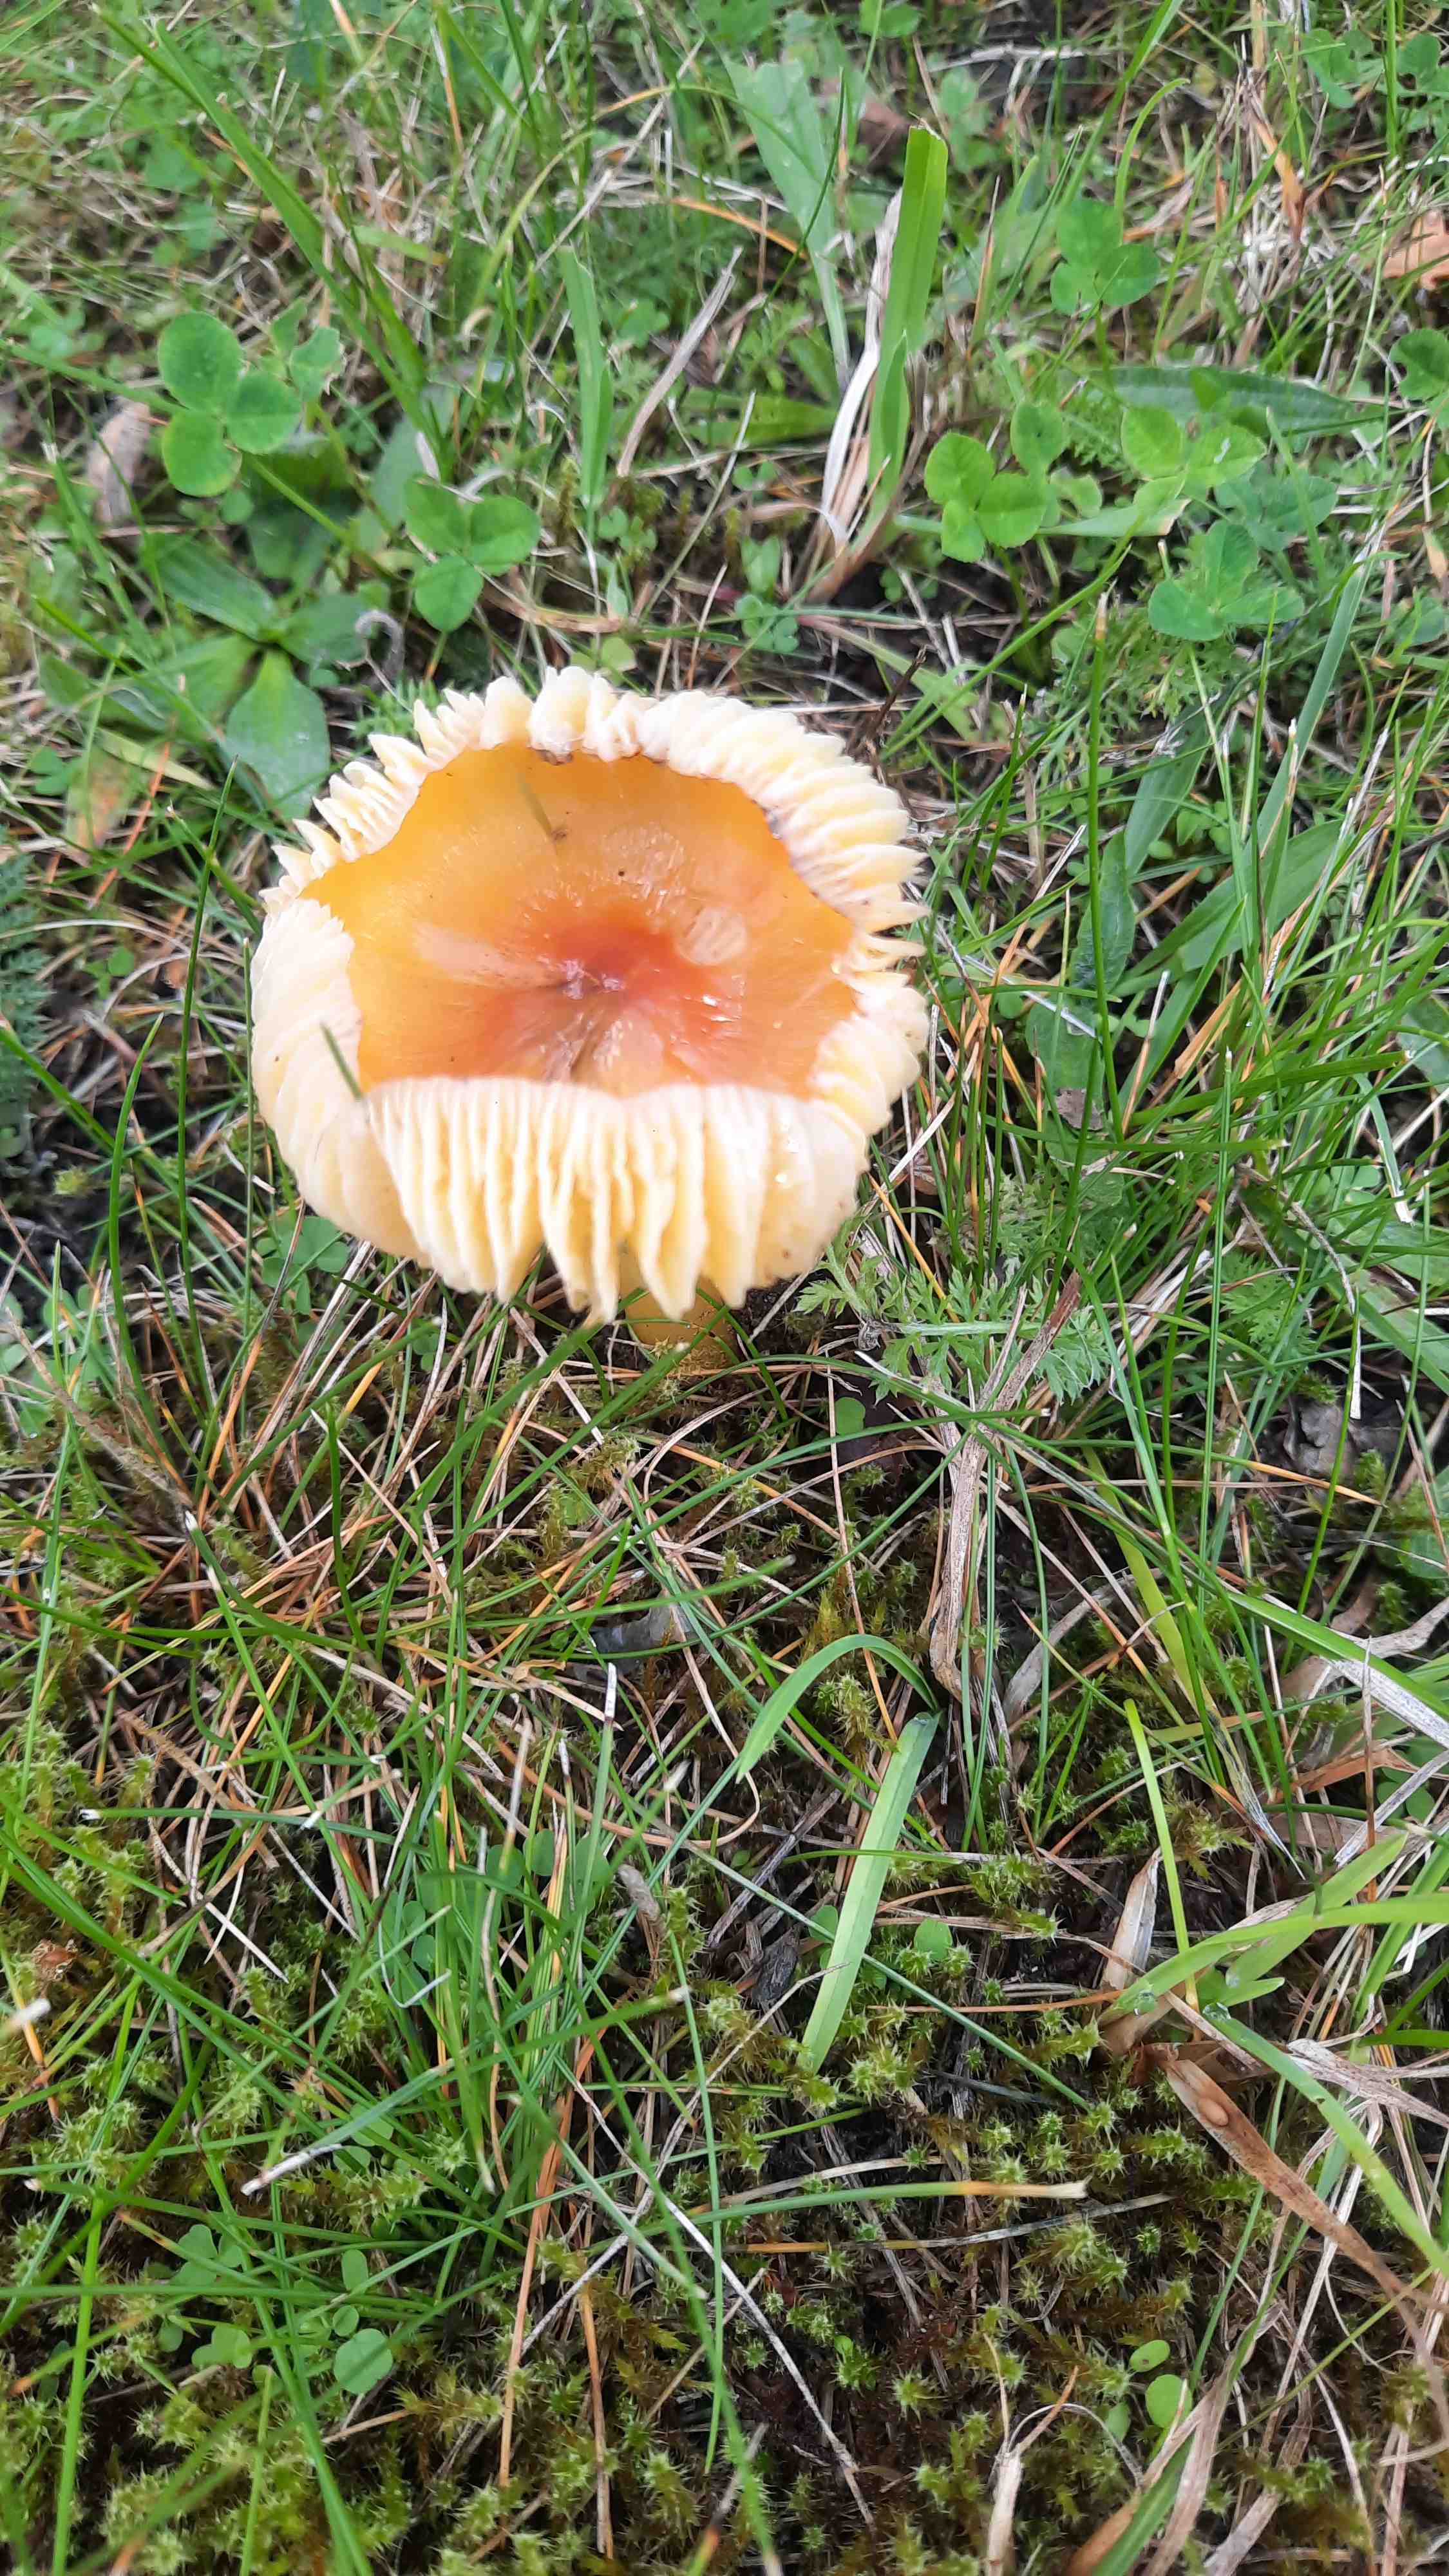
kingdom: Fungi
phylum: Basidiomycota
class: Agaricomycetes
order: Agaricales
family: Hygrophoraceae
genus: Hygrocybe
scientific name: Hygrocybe
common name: vokshat
